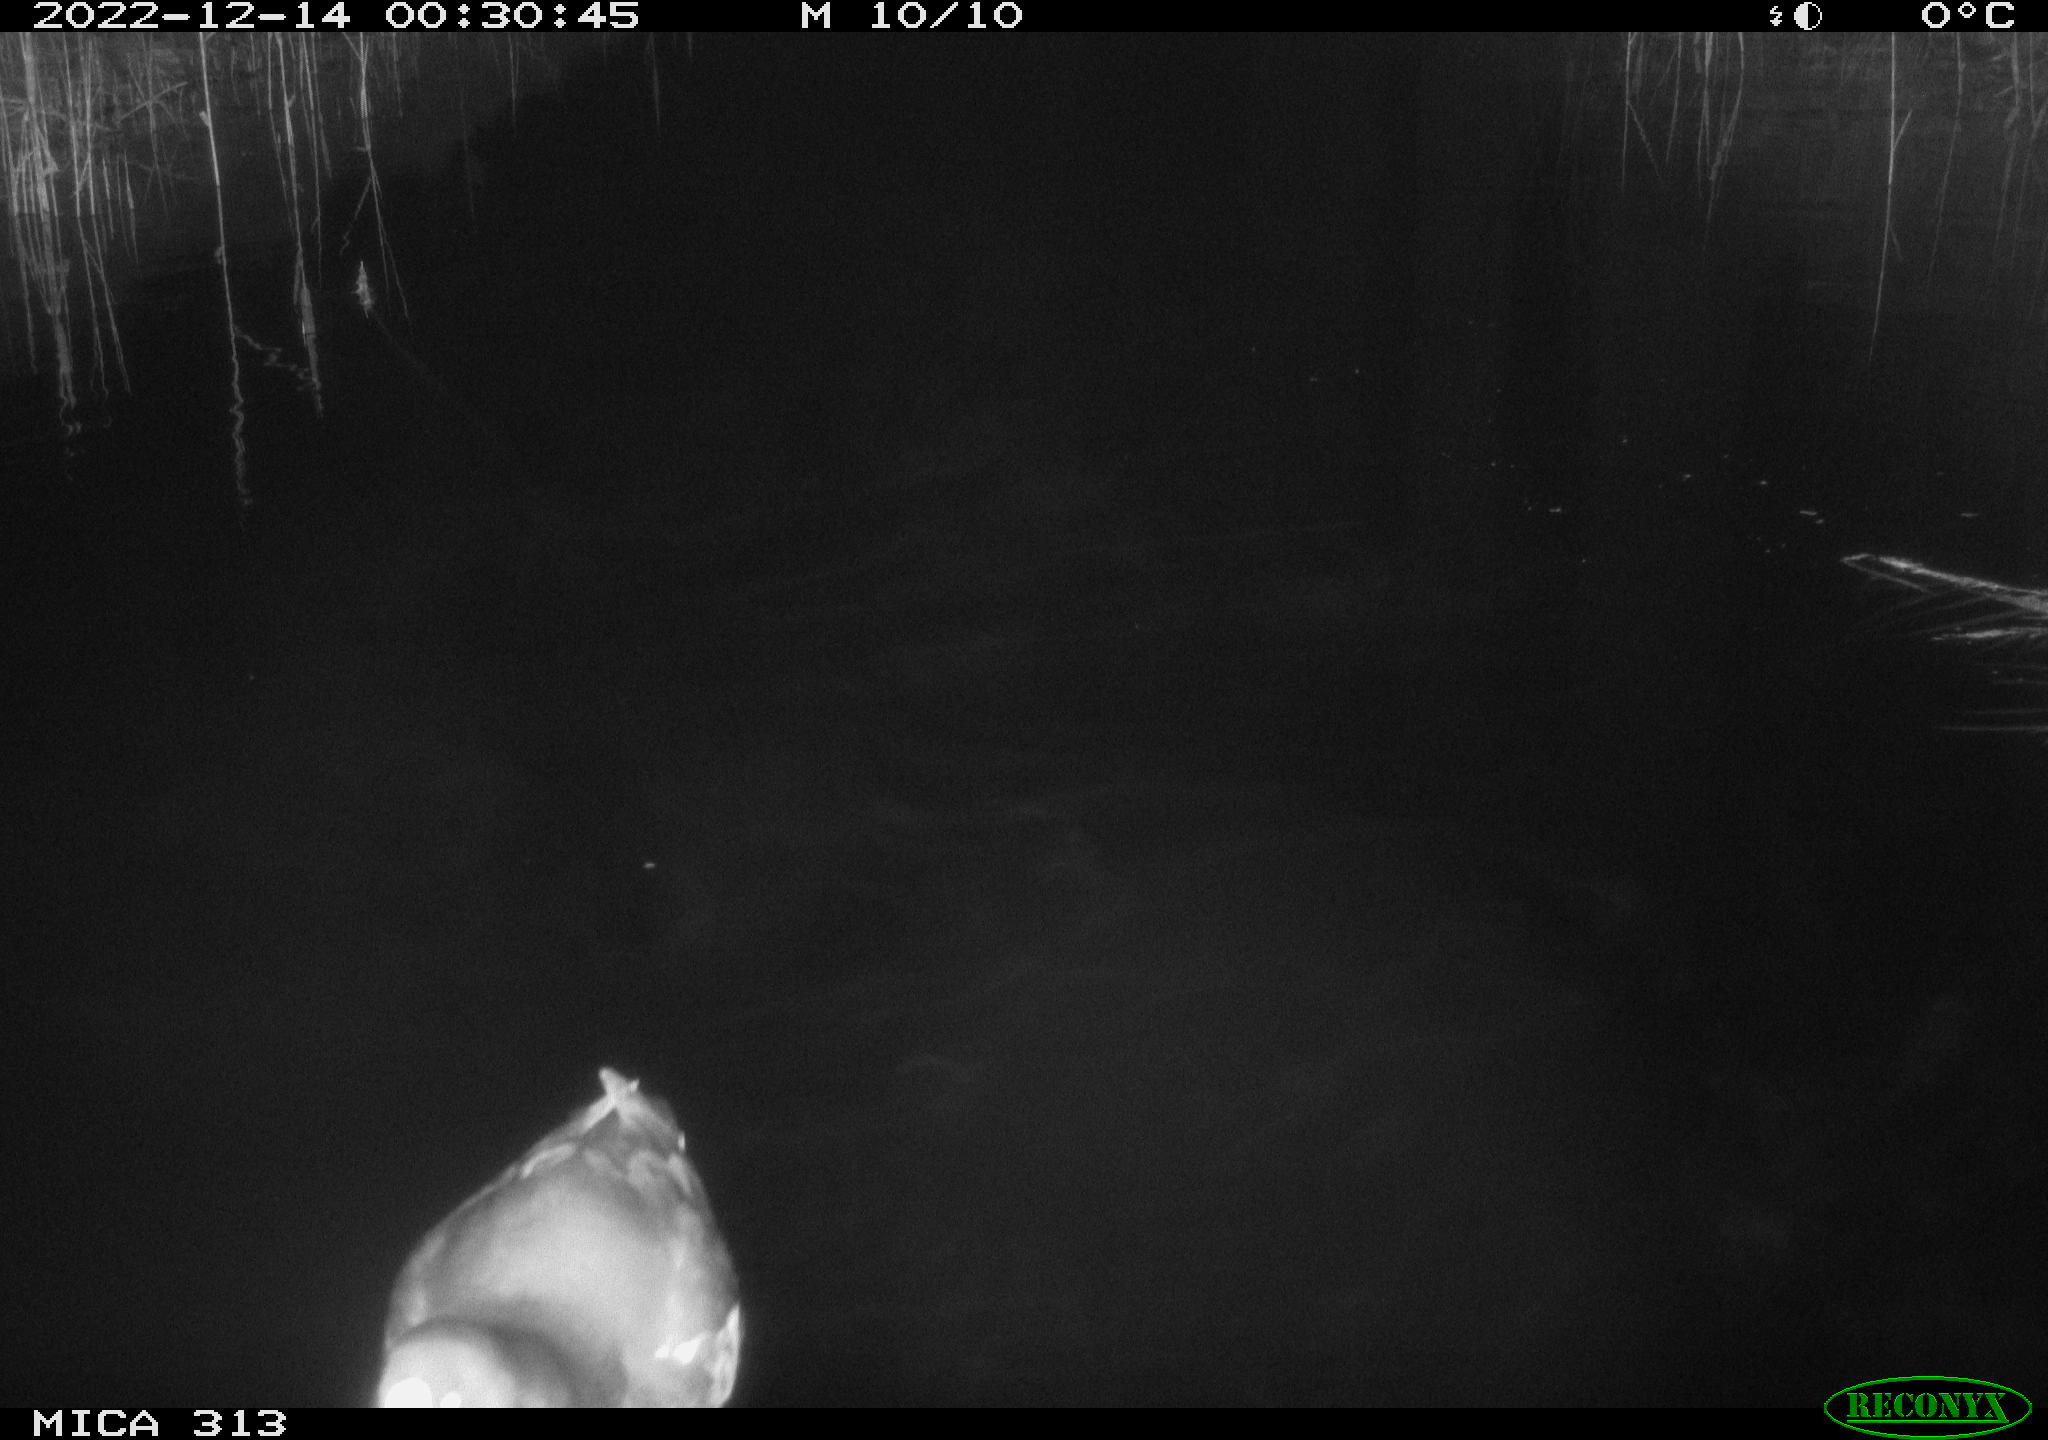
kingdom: Animalia
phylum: Chordata
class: Aves
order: Anseriformes
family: Anatidae
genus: Anas
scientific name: Anas
